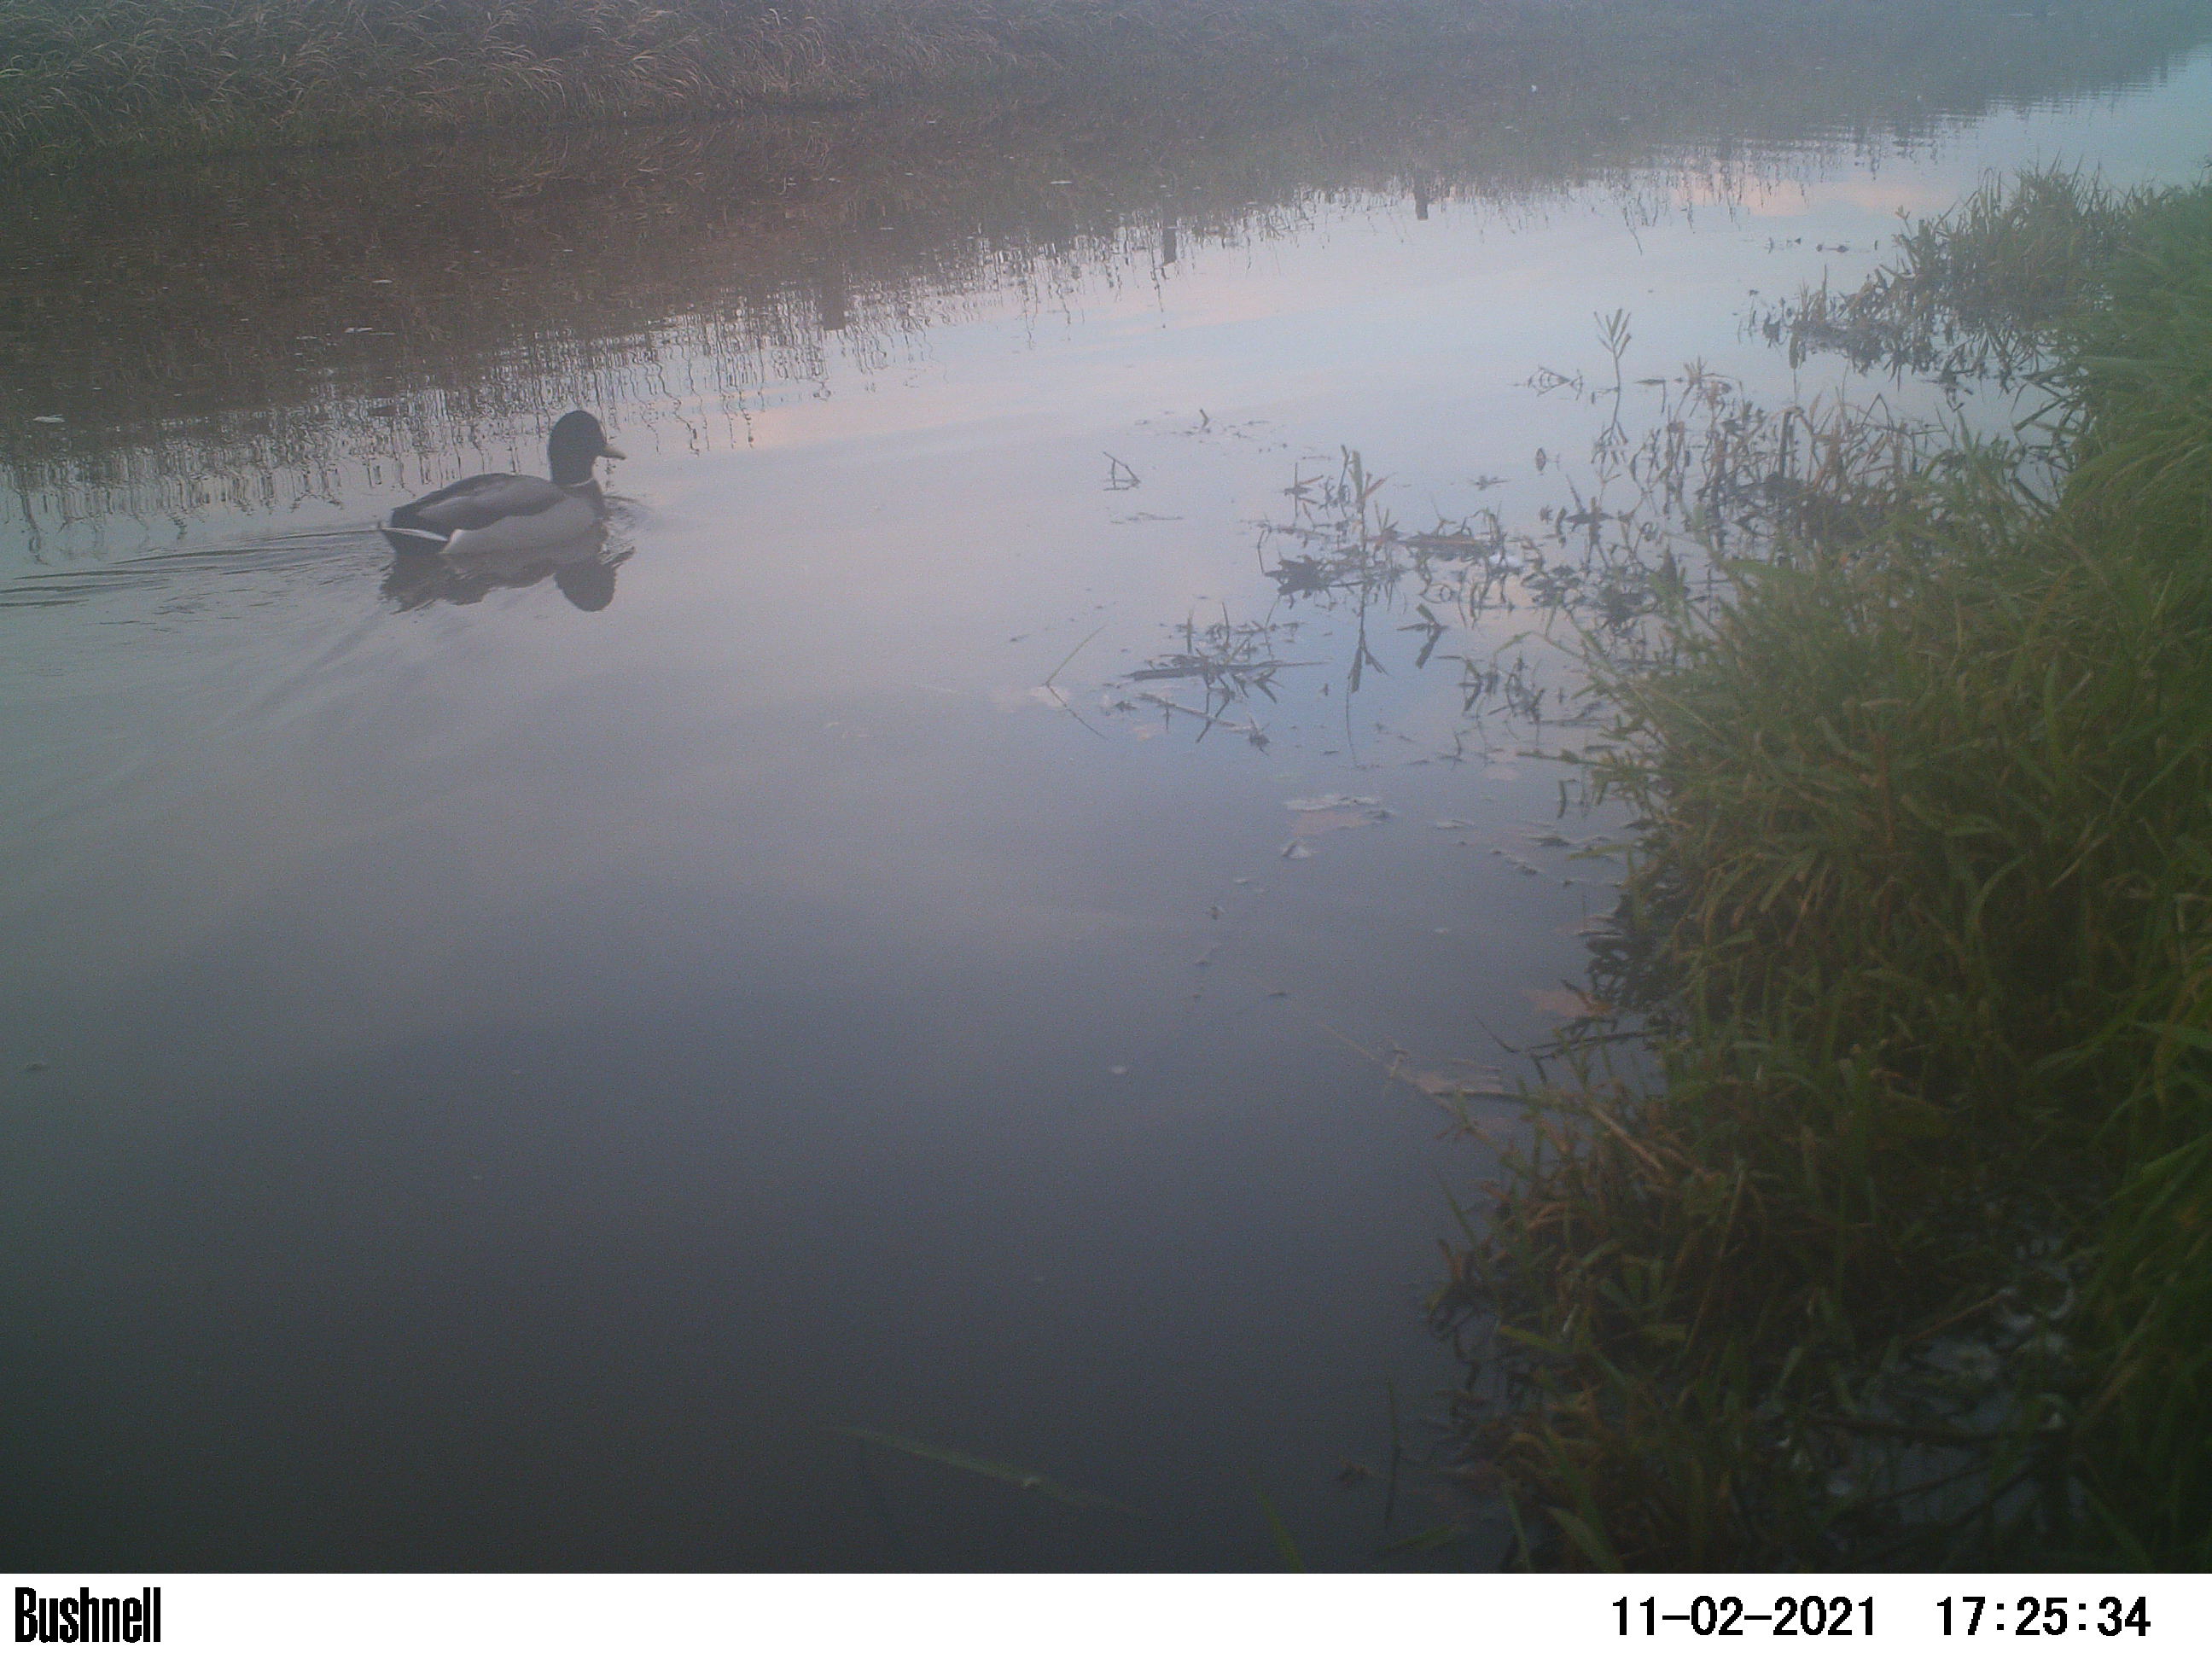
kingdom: Animalia
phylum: Chordata
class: Aves
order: Anseriformes
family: Anatidae
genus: Anas
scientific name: Anas
